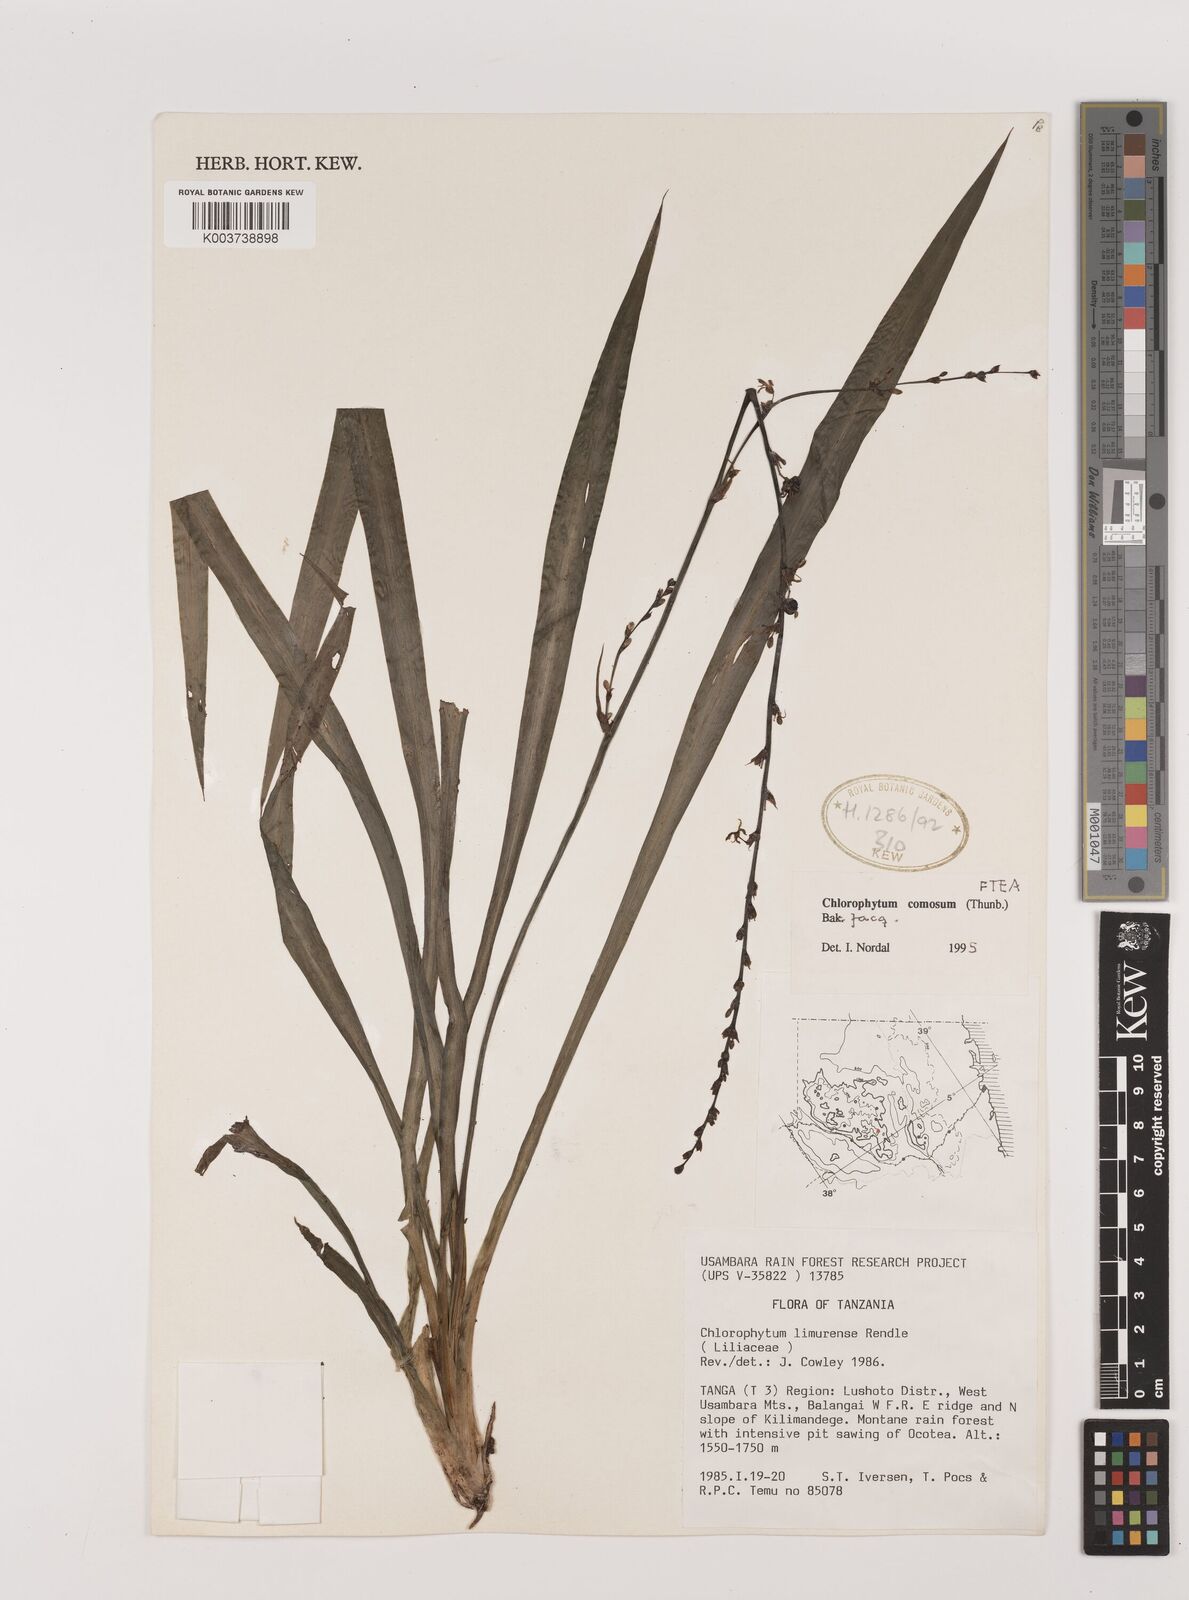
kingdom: Plantae
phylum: Tracheophyta
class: Liliopsida
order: Asparagales
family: Asparagaceae
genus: Chlorophytum
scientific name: Chlorophytum comosum
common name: Spider plant
